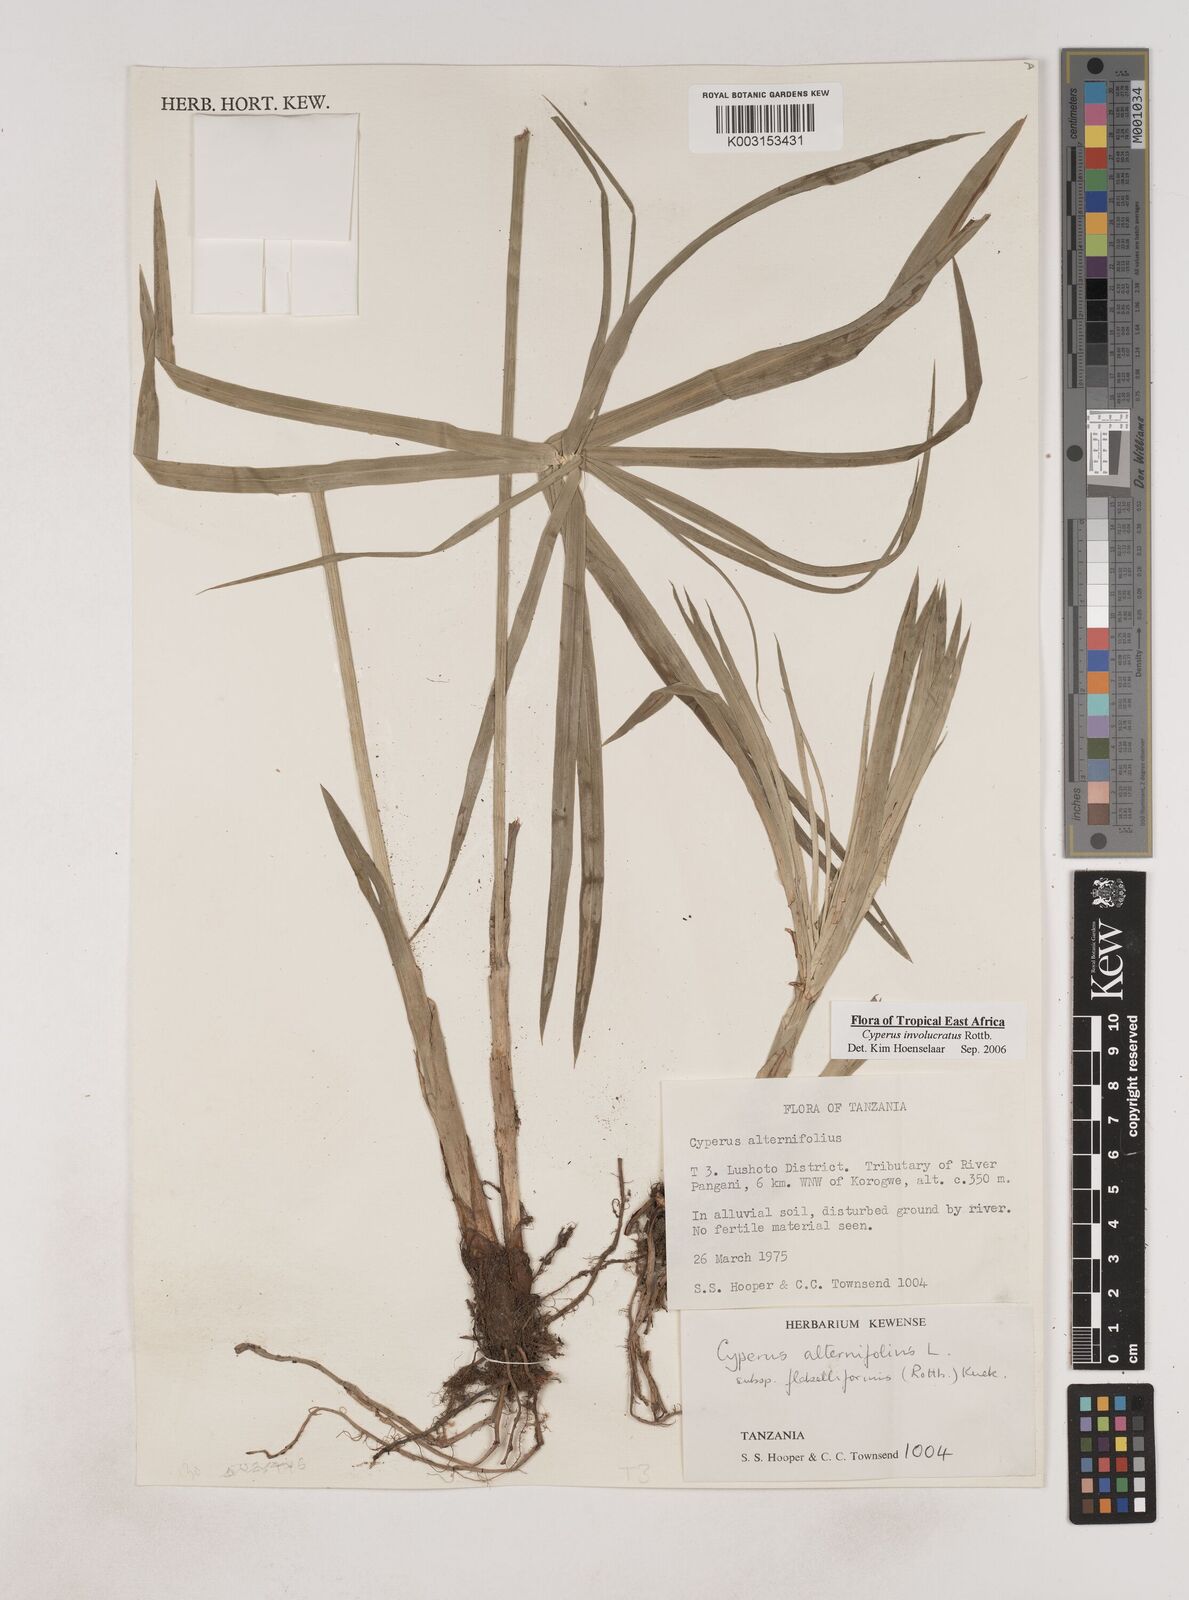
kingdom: Plantae
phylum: Tracheophyta
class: Liliopsida
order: Poales
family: Cyperaceae
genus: Cyperus
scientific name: Cyperus
